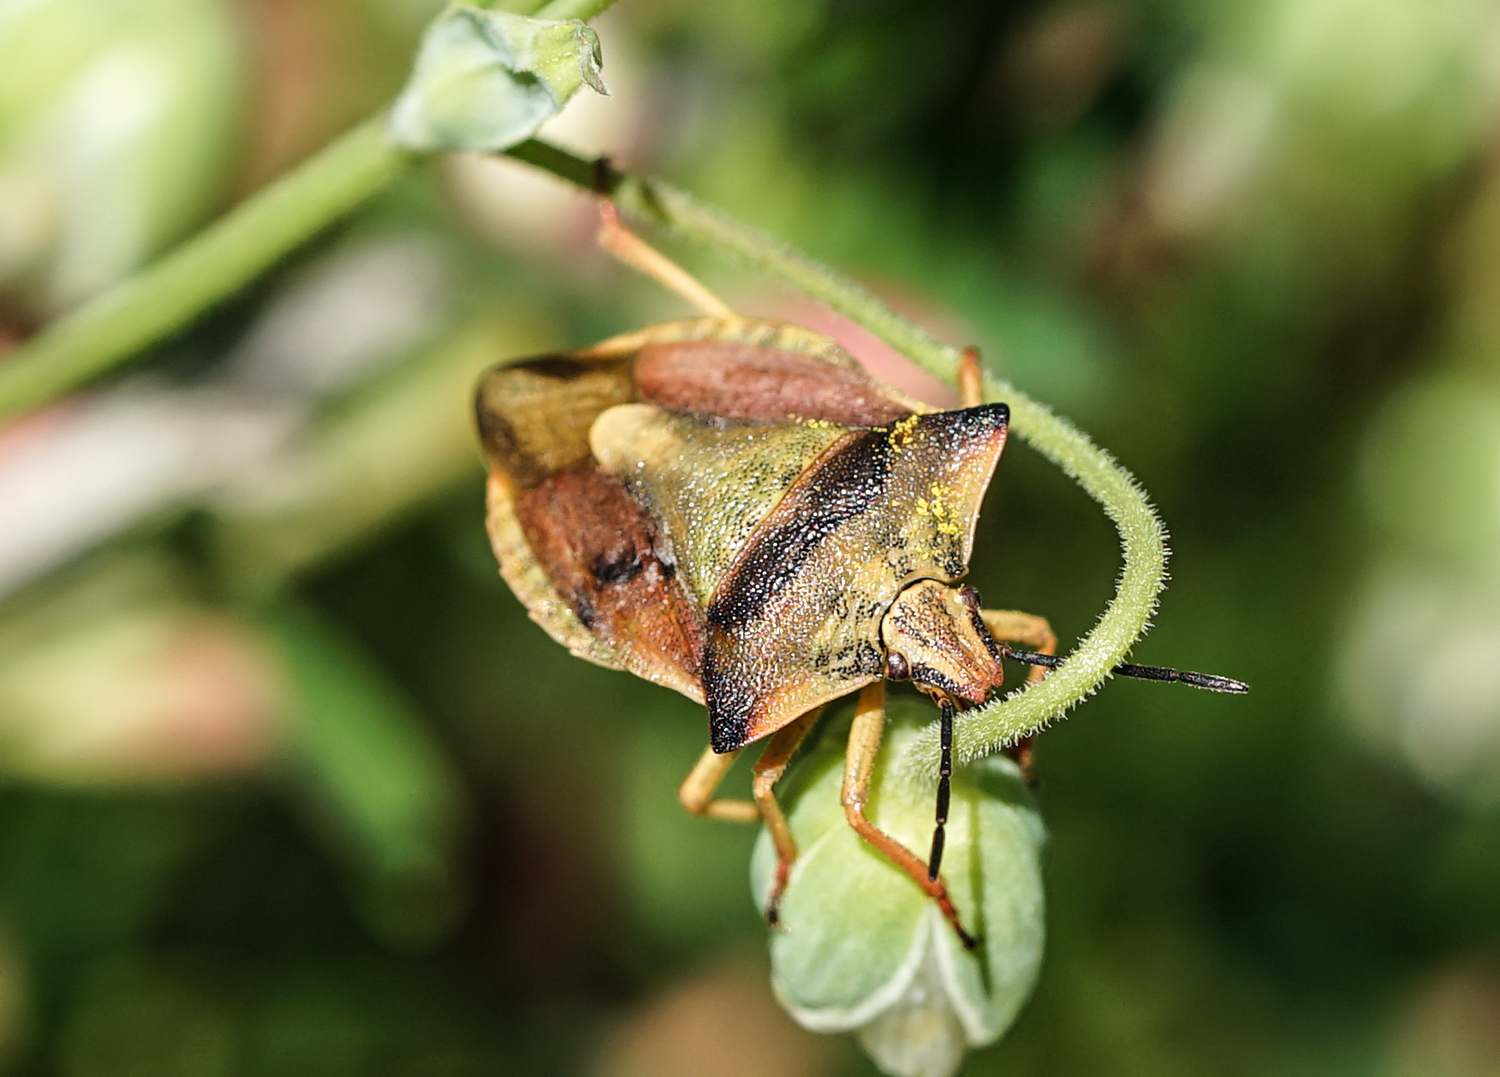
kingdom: Animalia
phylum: Arthropoda
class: Insecta
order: Hemiptera
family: Pentatomidae
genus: Carpocoris
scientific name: Carpocoris fuscispinus
